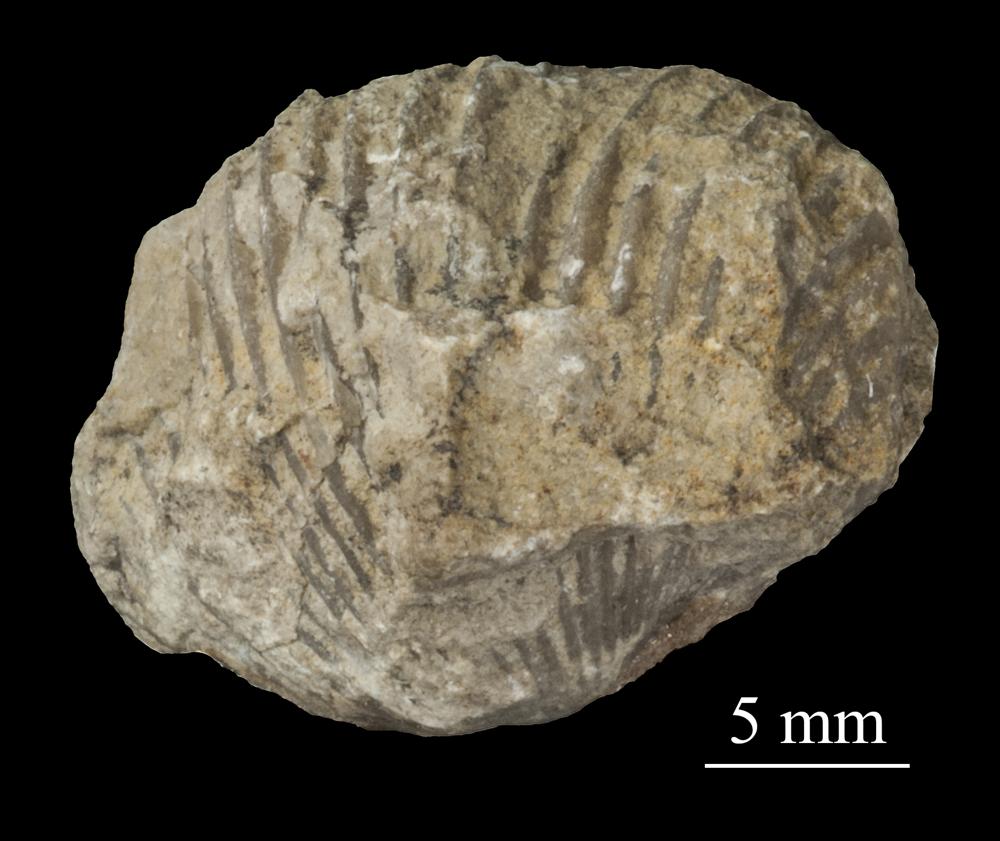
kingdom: Animalia
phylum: Brachiopoda
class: Rhynchonellata
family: Plectorthidae
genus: Platystrophia
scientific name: Platystrophia Terebratulites biforatus
